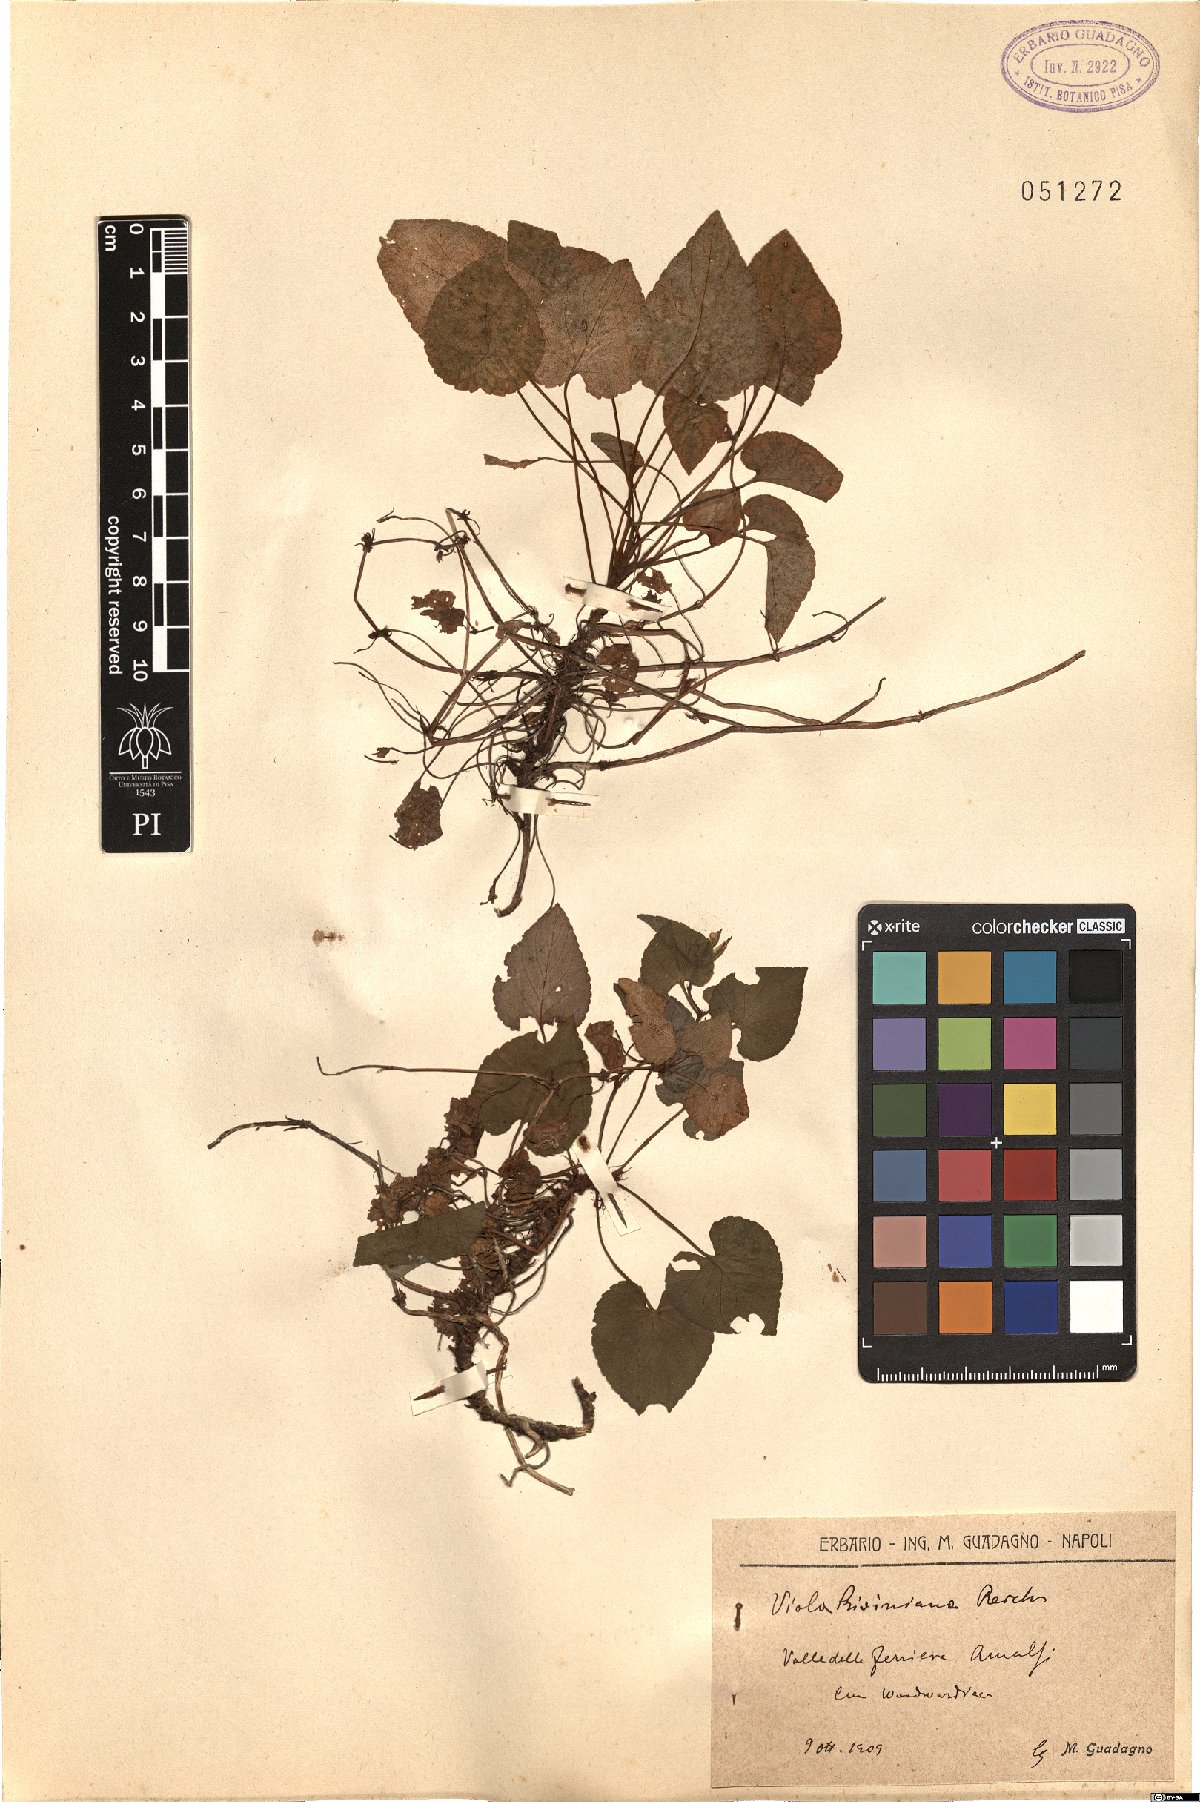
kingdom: Plantae
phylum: Tracheophyta
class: Magnoliopsida
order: Malpighiales
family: Violaceae
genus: Viola
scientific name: Viola riviniana
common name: Common dog-violet
